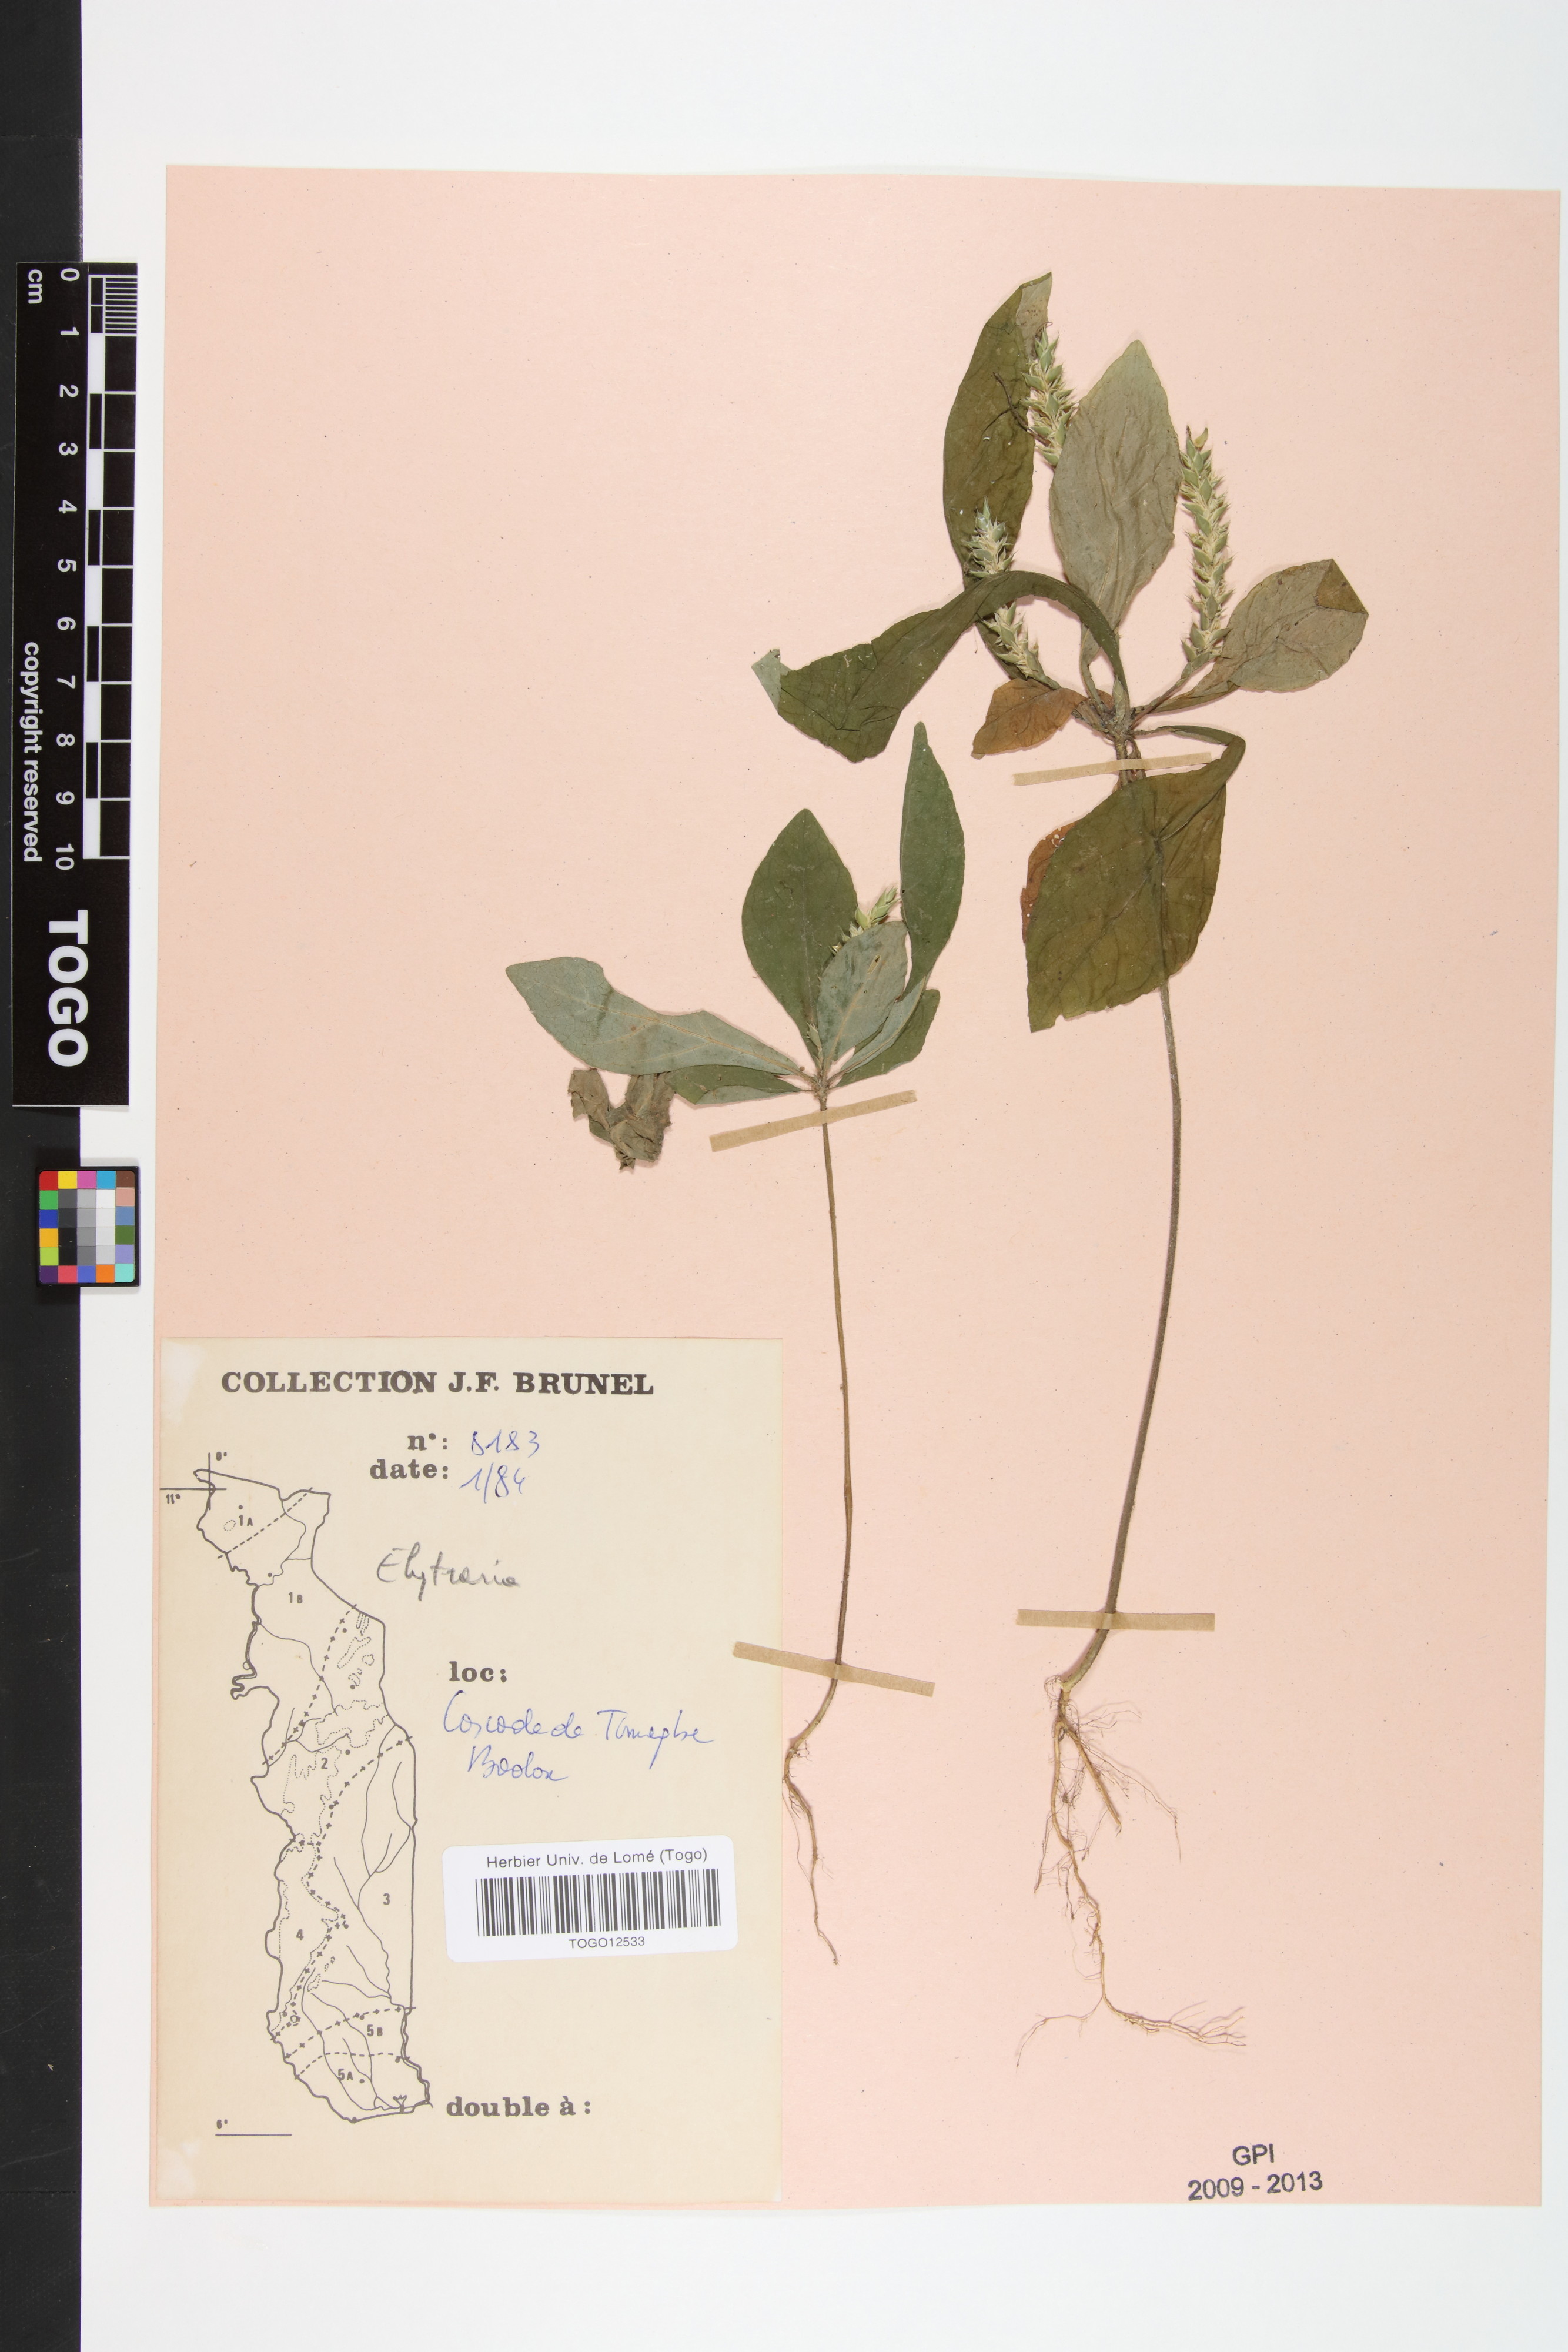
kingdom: Plantae
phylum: Tracheophyta
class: Magnoliopsida
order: Lamiales
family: Acanthaceae
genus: Elytraria
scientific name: Elytraria marginata
